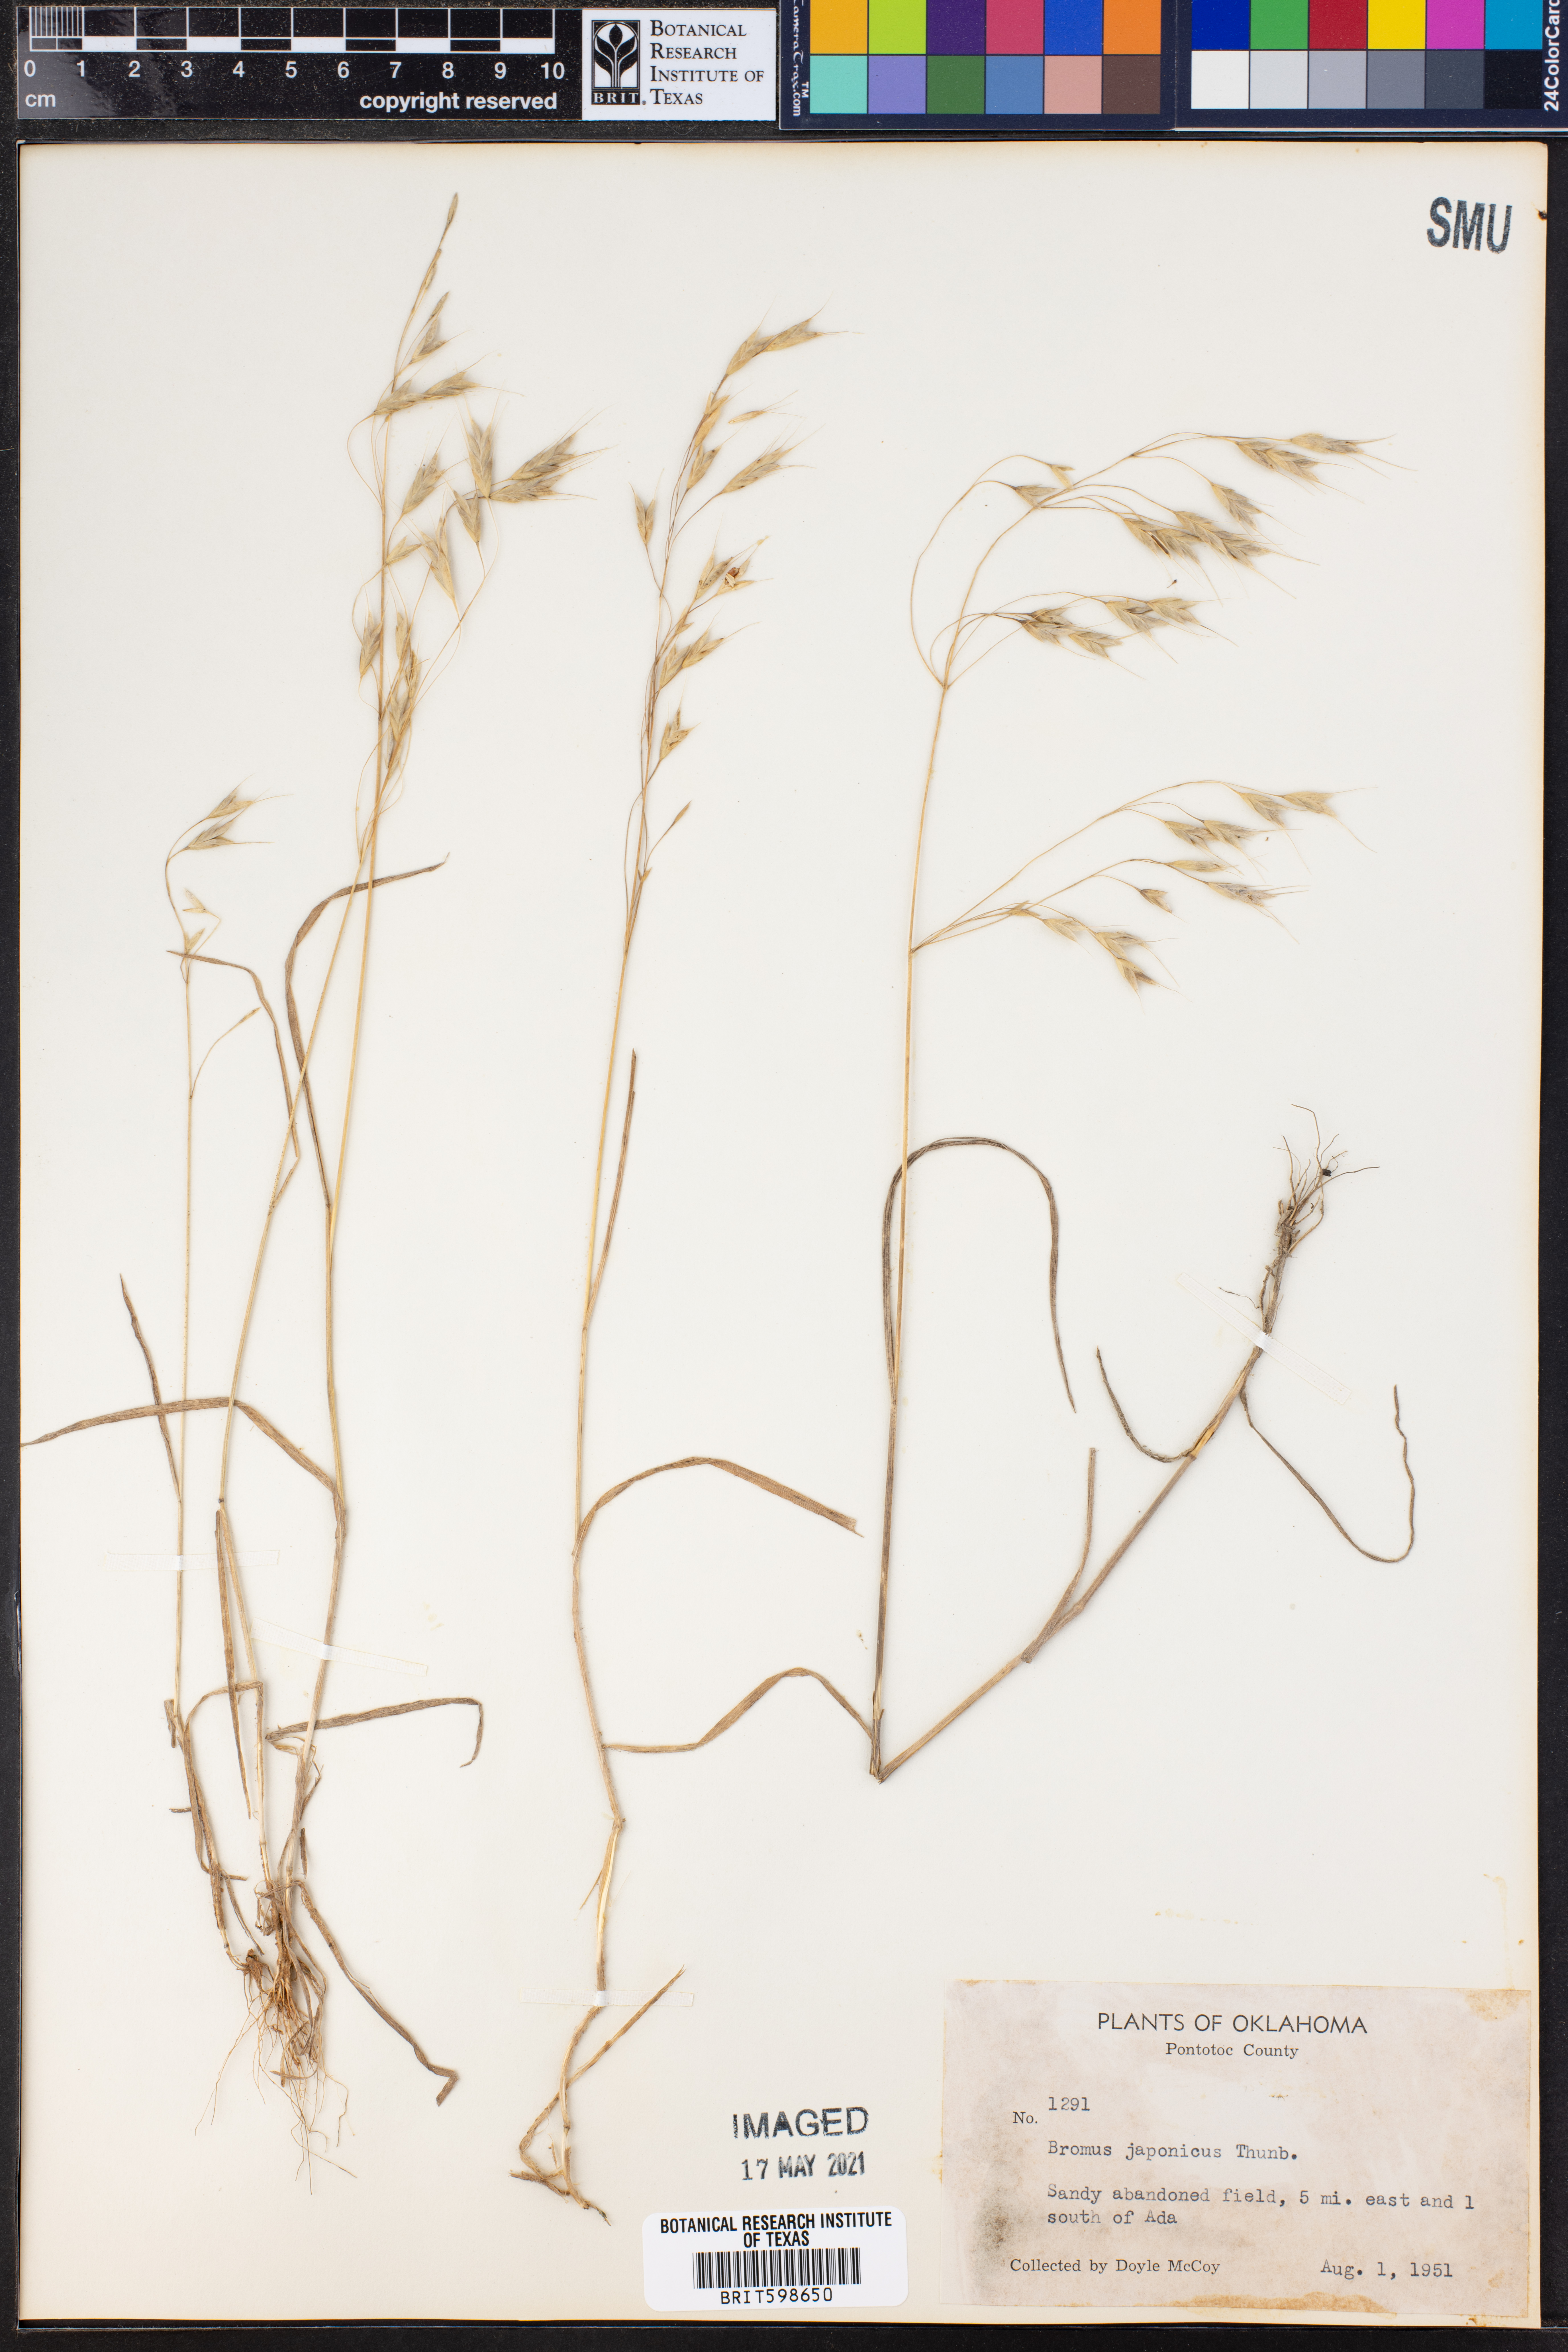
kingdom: Plantae
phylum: Tracheophyta
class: Liliopsida
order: Poales
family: Poaceae
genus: Bromus
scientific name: Bromus japonicus
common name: Japanese brome
